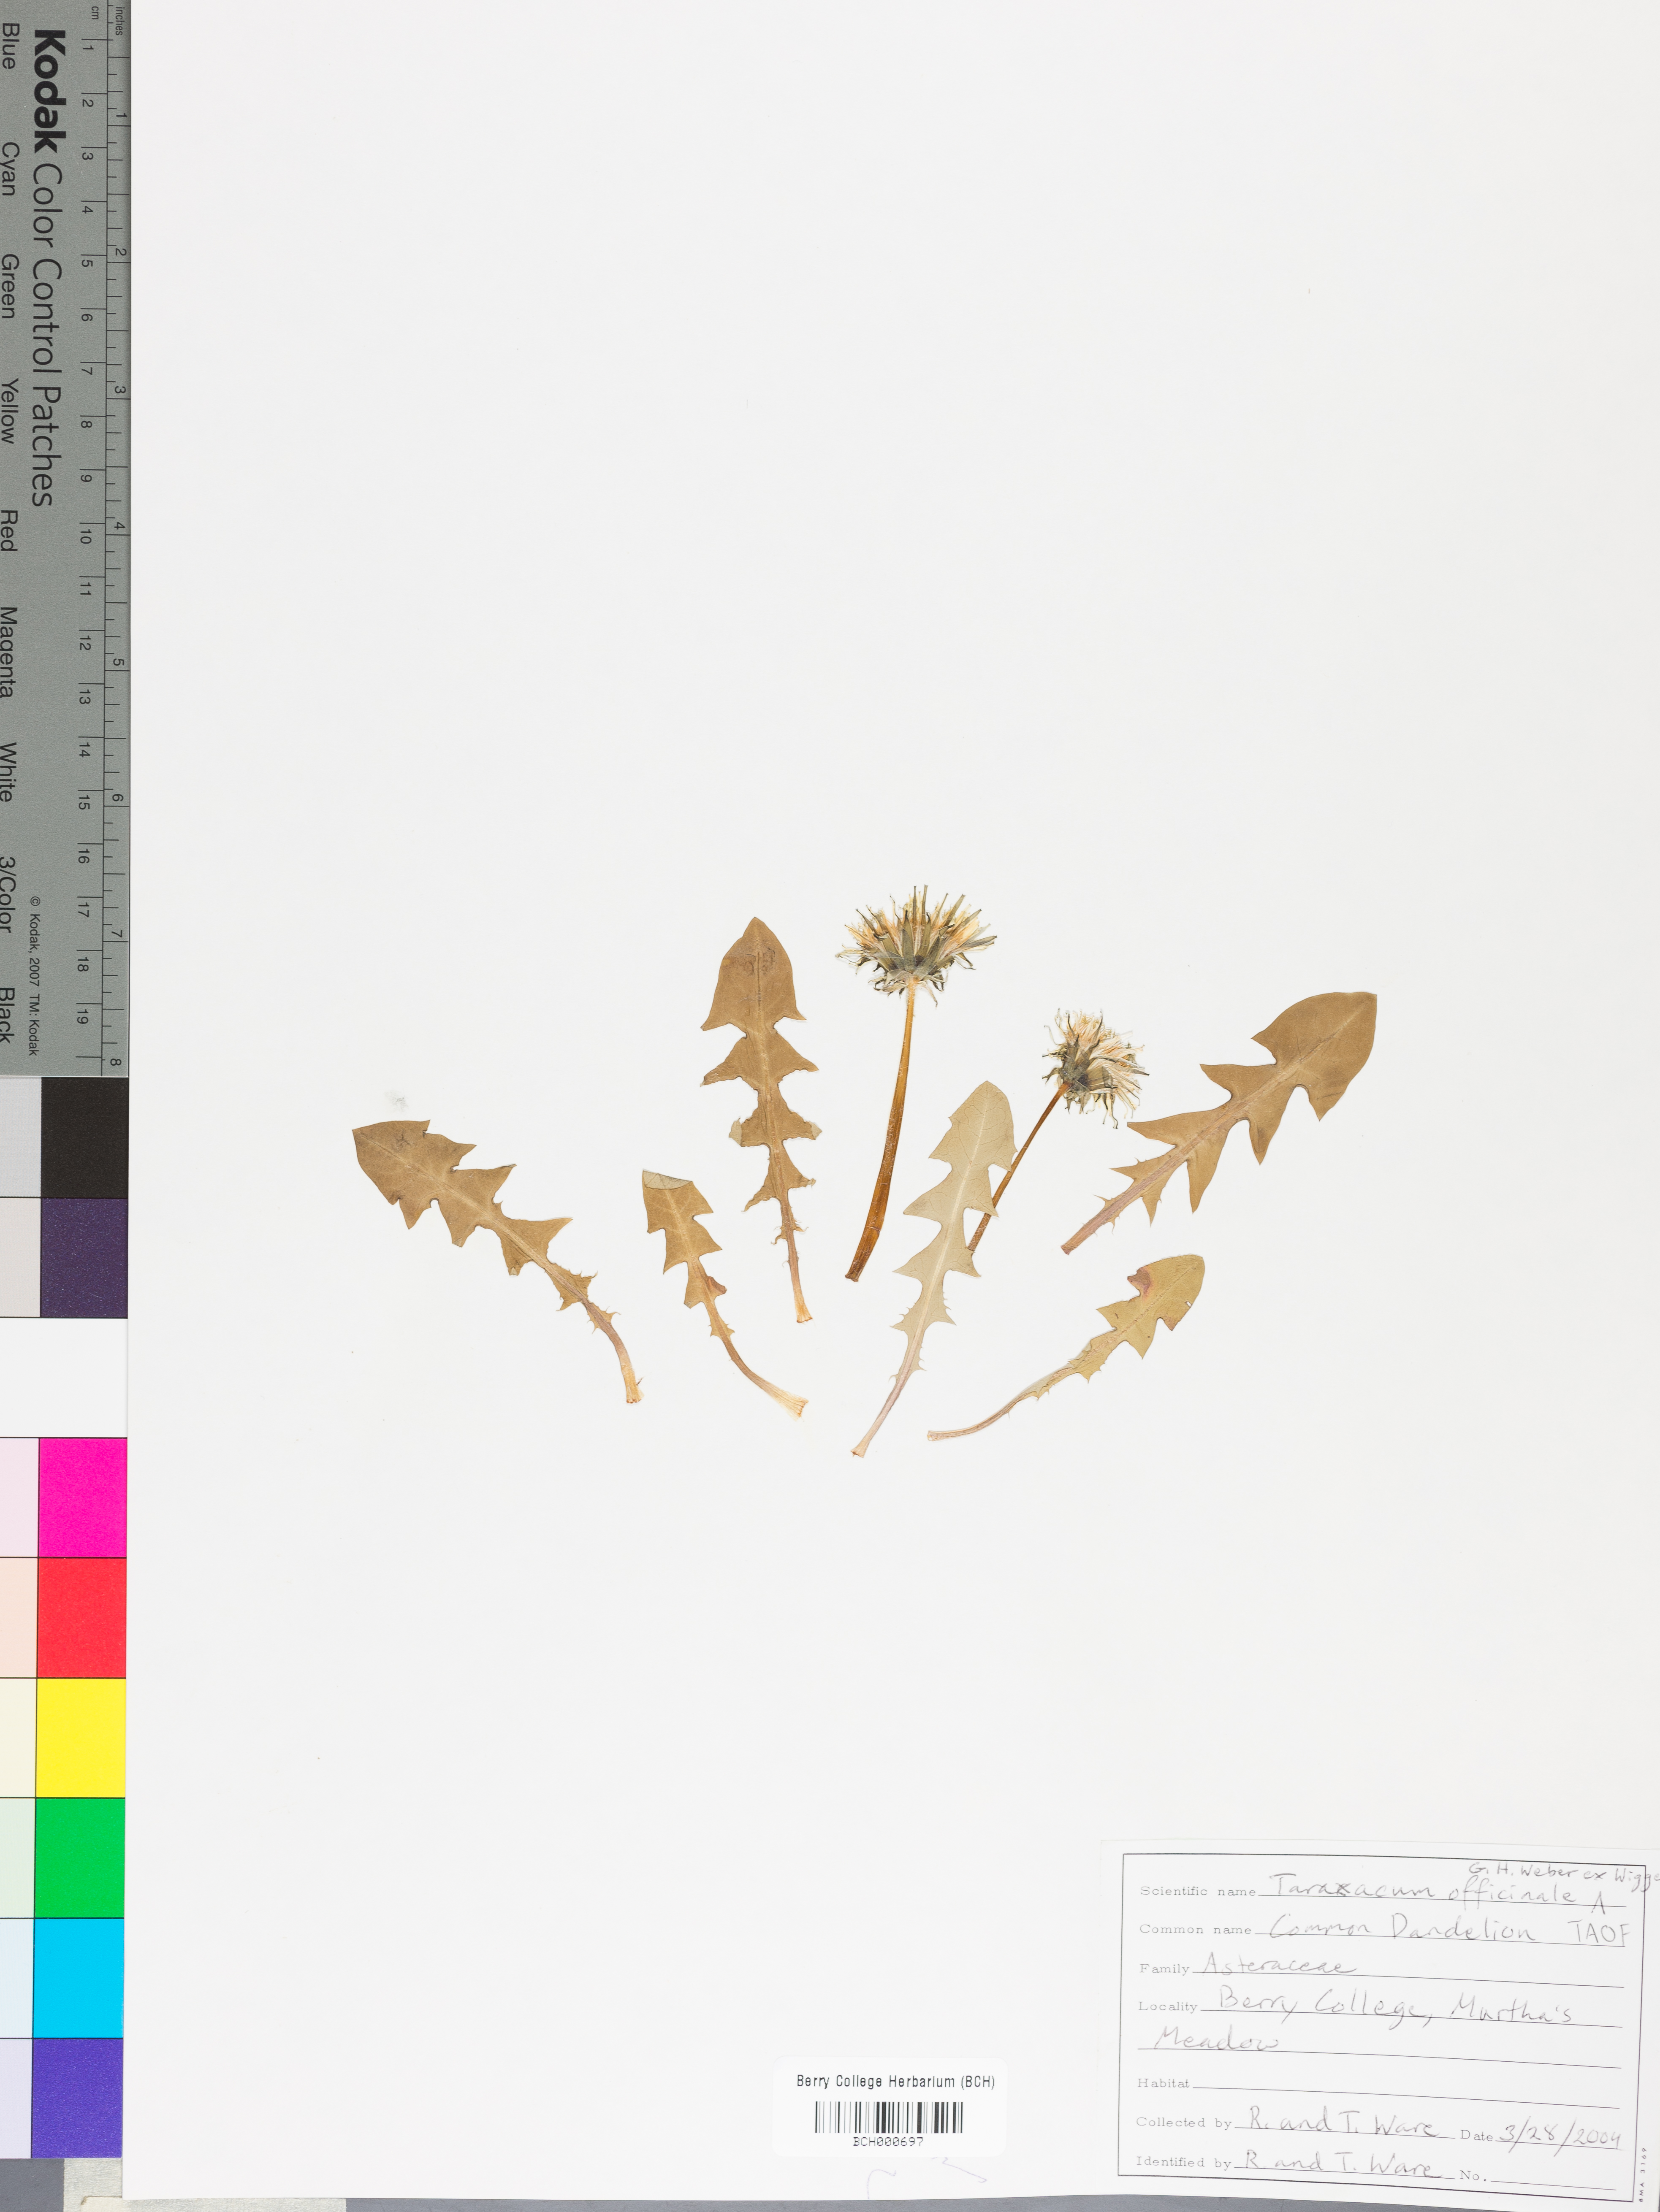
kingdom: Plantae
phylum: Tracheophyta
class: Magnoliopsida
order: Asterales
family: Asteraceae
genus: Taraxacum
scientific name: Taraxacum officinale
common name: Common dandelion
